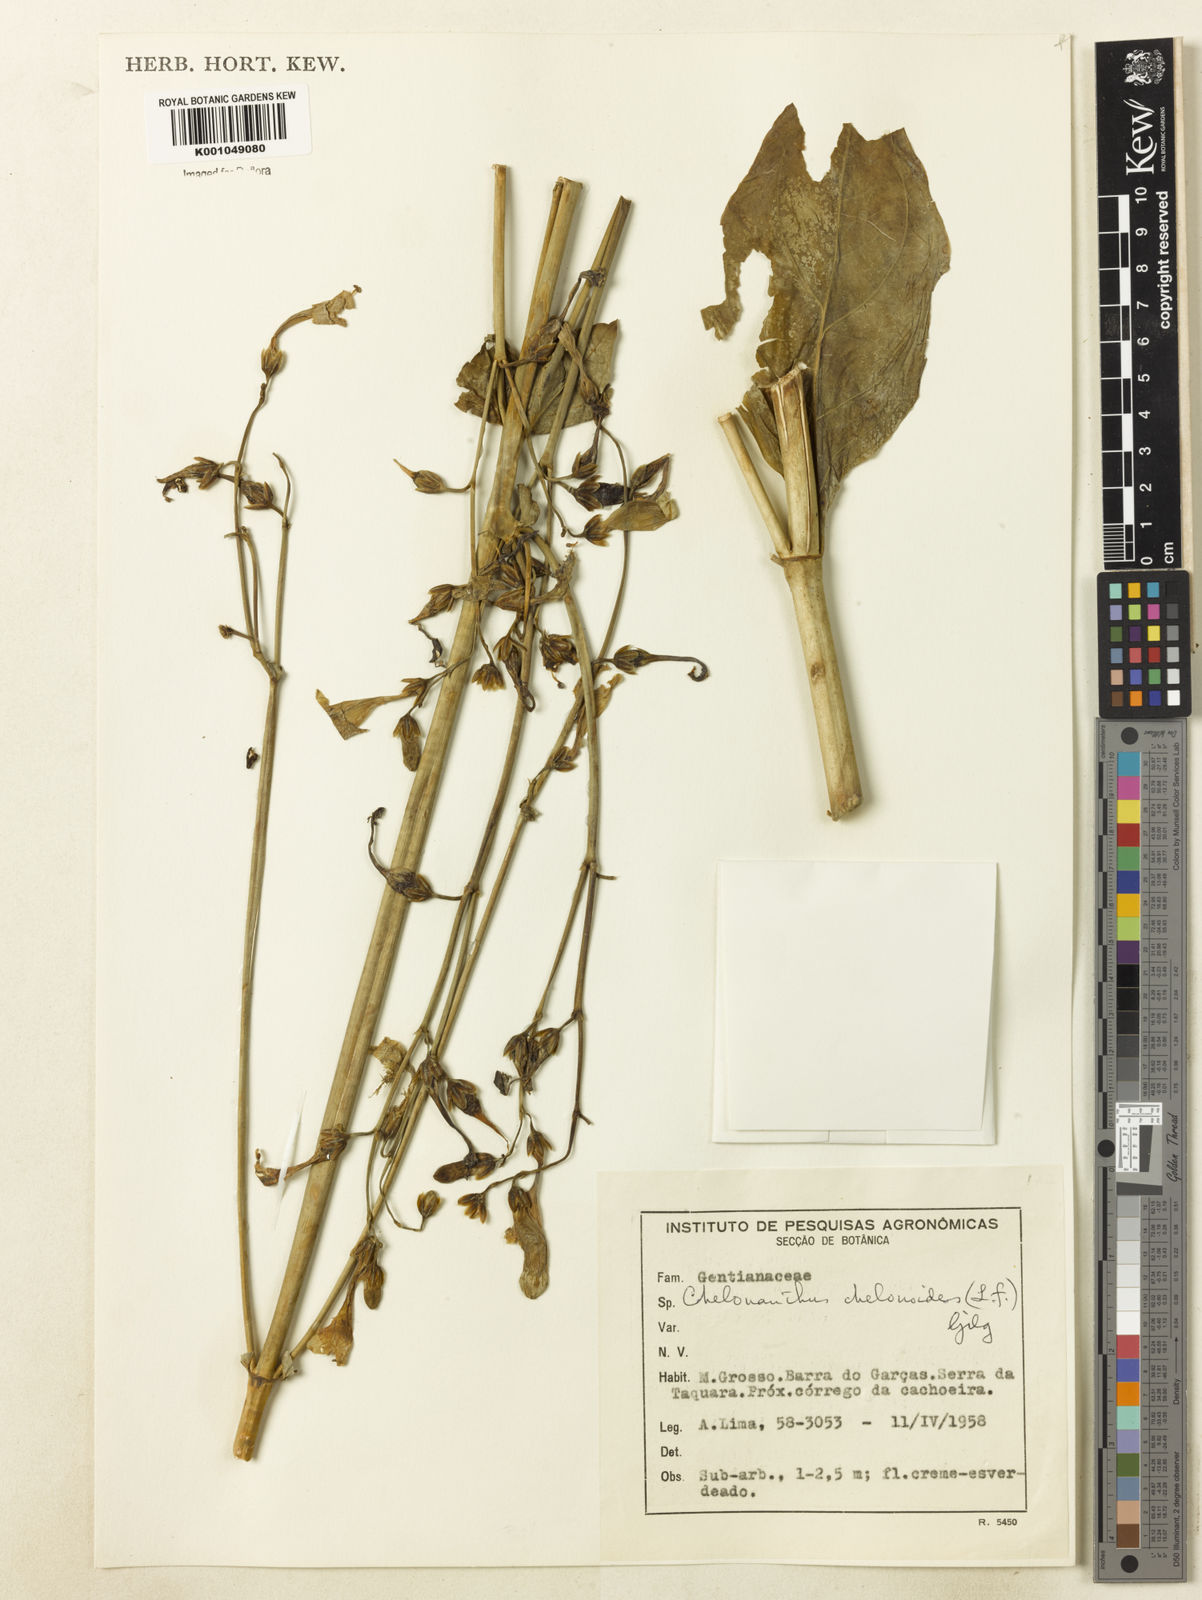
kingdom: Plantae
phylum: Tracheophyta
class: Magnoliopsida
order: Gentianales
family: Gentianaceae
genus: Chelonanthus
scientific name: Chelonanthus alatus
